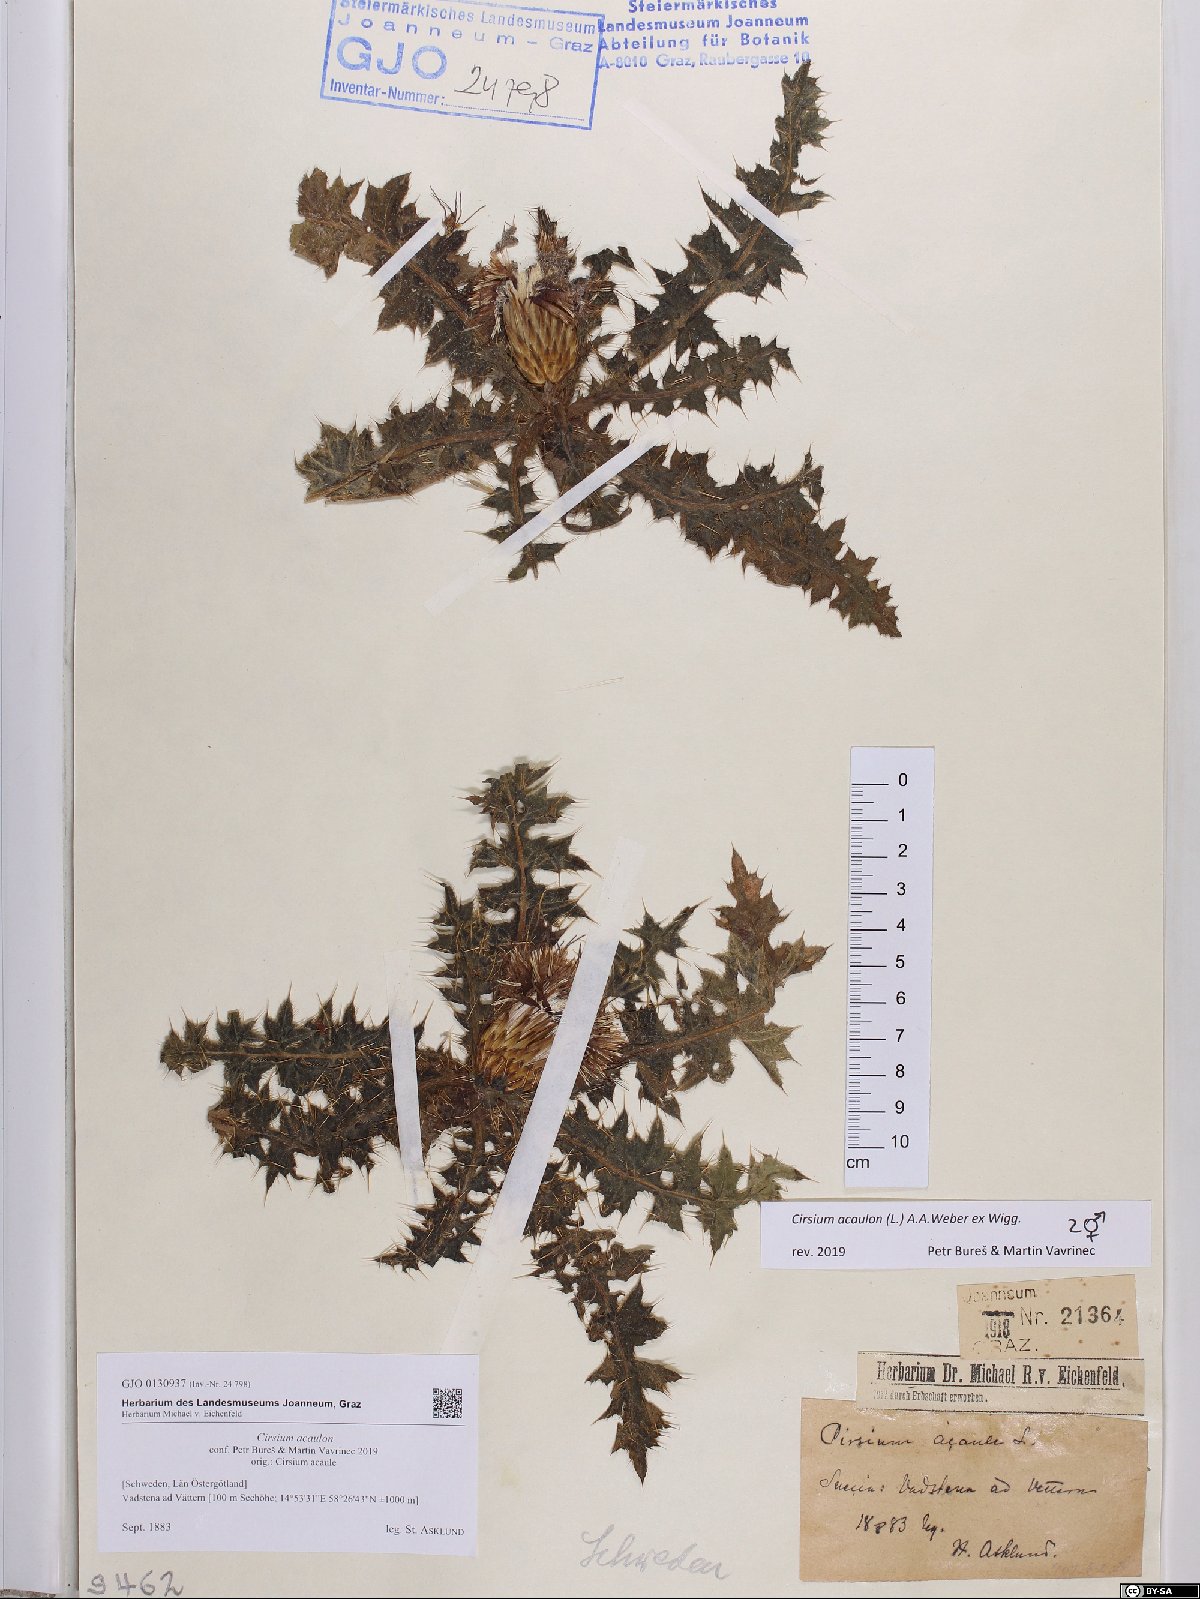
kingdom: Plantae
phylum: Tracheophyta
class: Magnoliopsida
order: Asterales
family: Asteraceae
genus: Cirsium
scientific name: Cirsium acaulon
